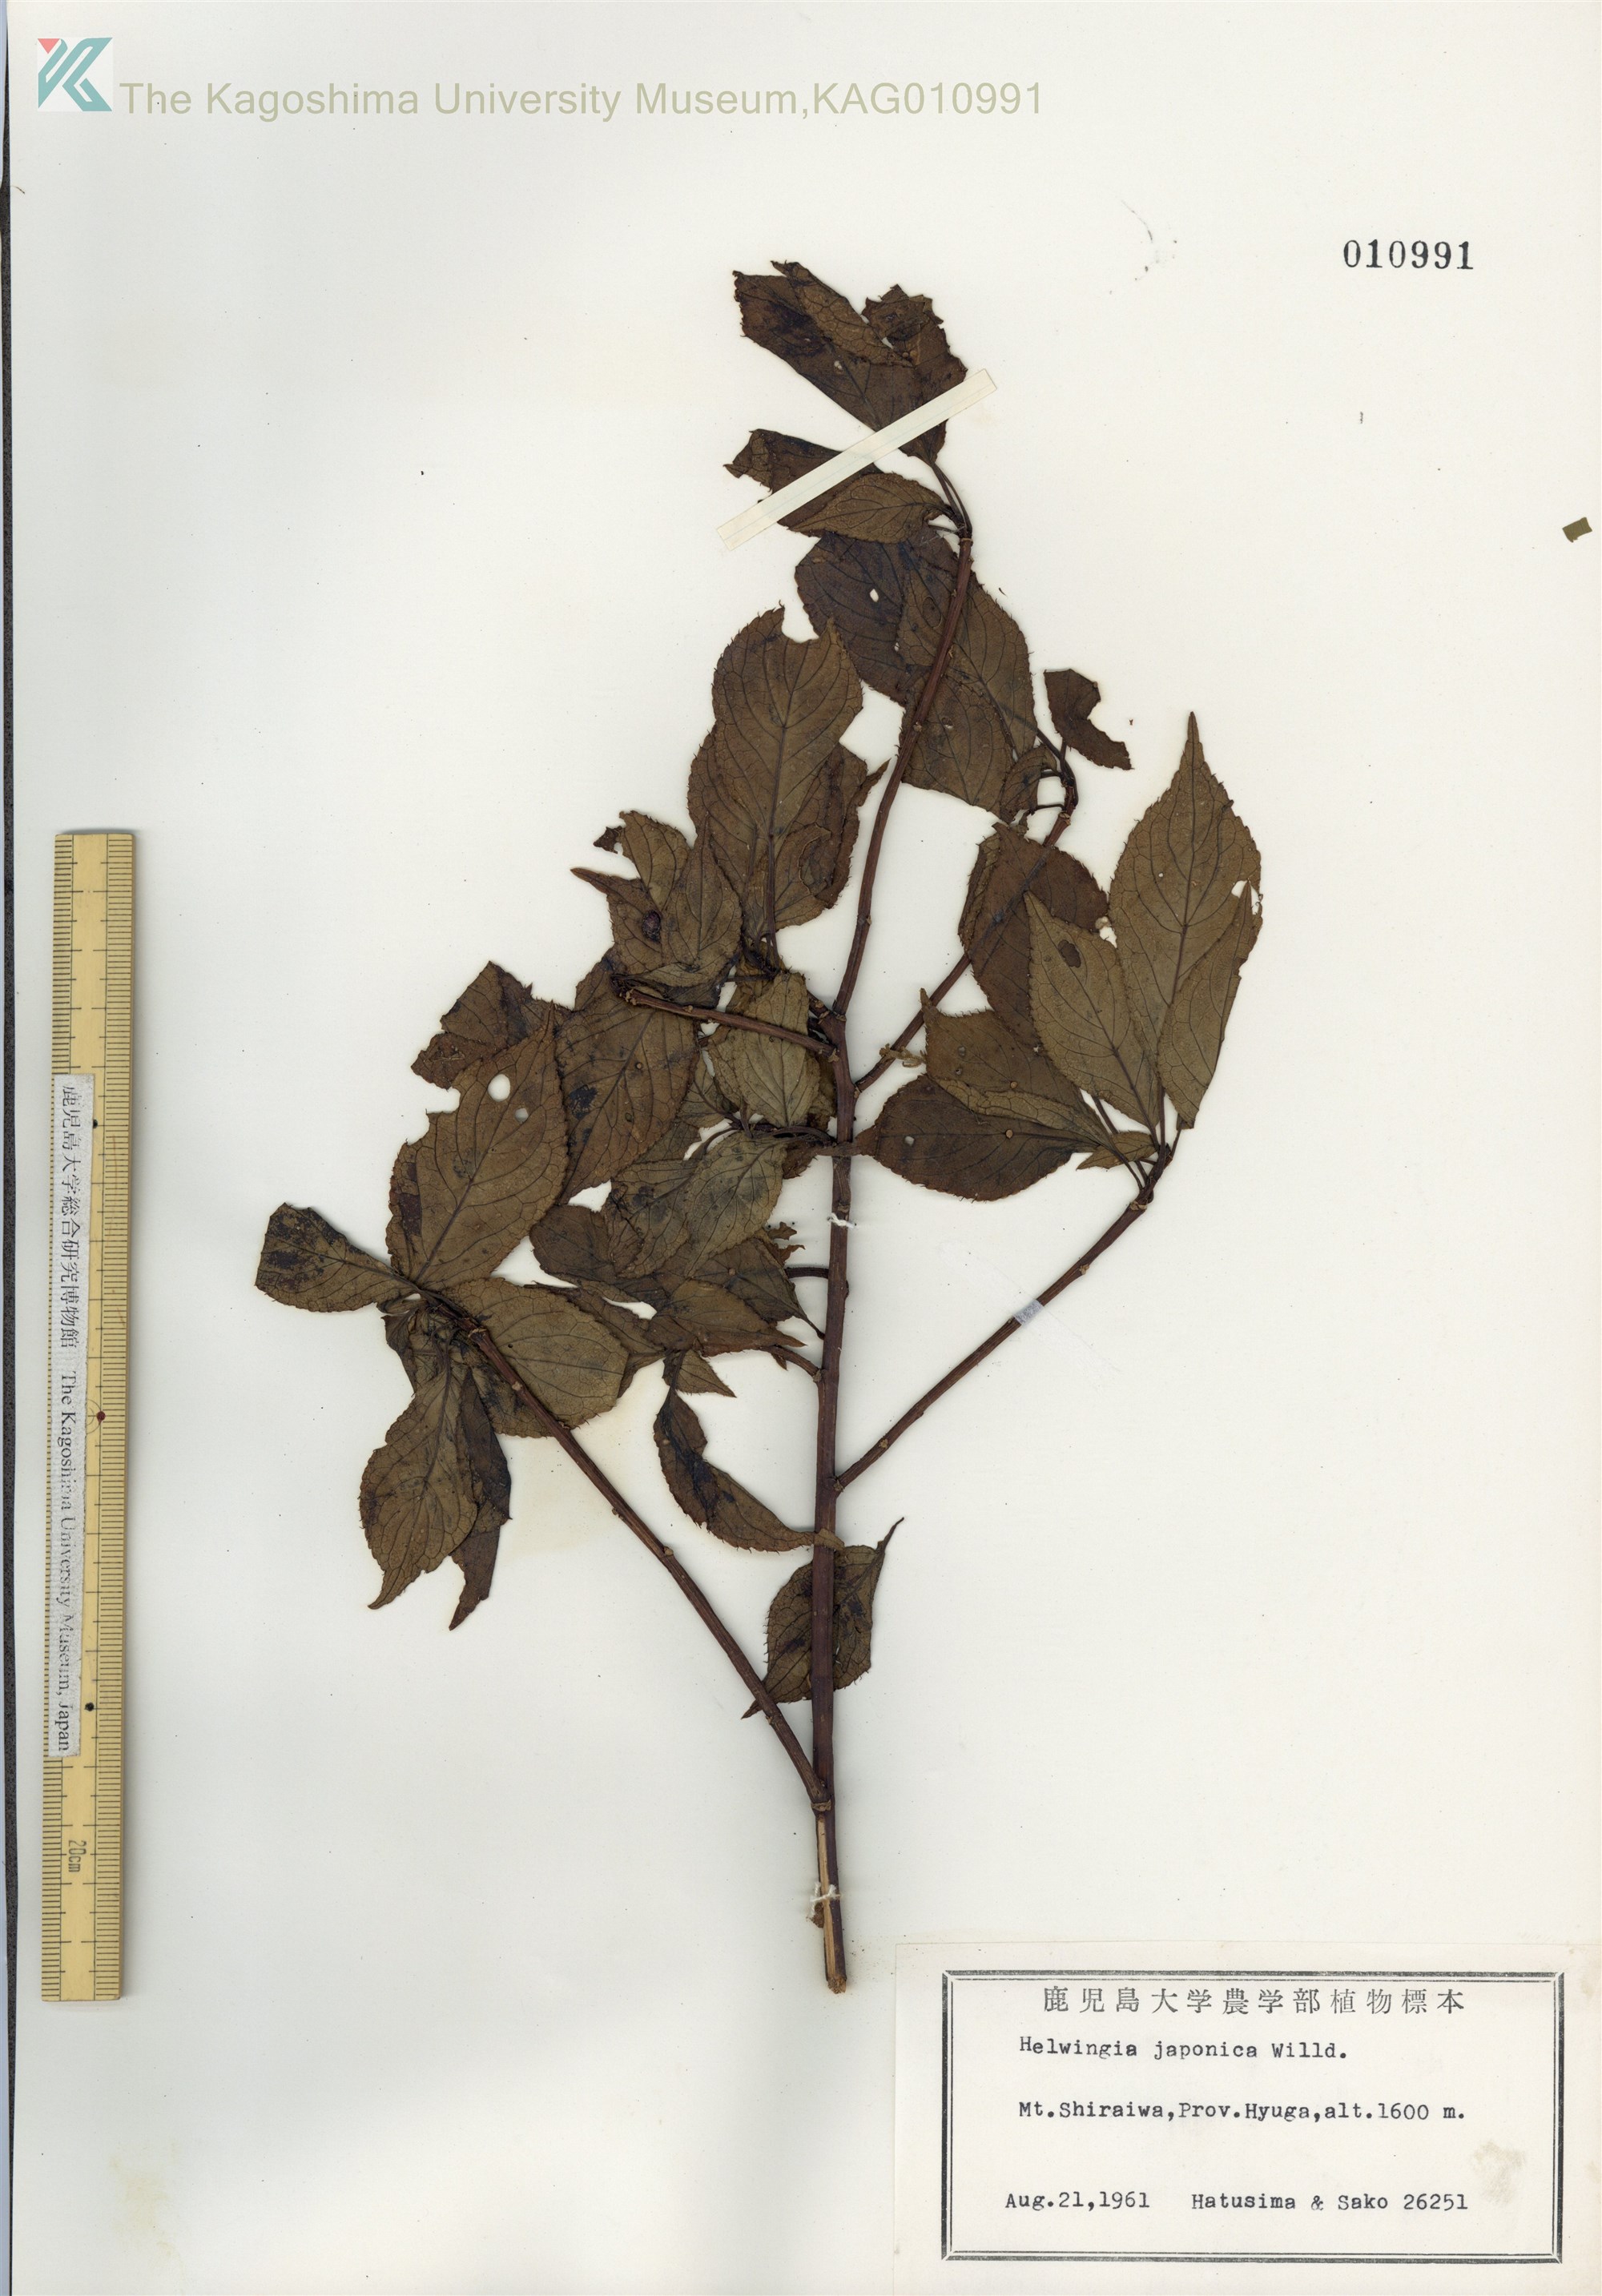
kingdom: Plantae
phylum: Tracheophyta
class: Magnoliopsida
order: Aquifoliales
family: Helwingiaceae
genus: Helwingia
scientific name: Helwingia japonica
